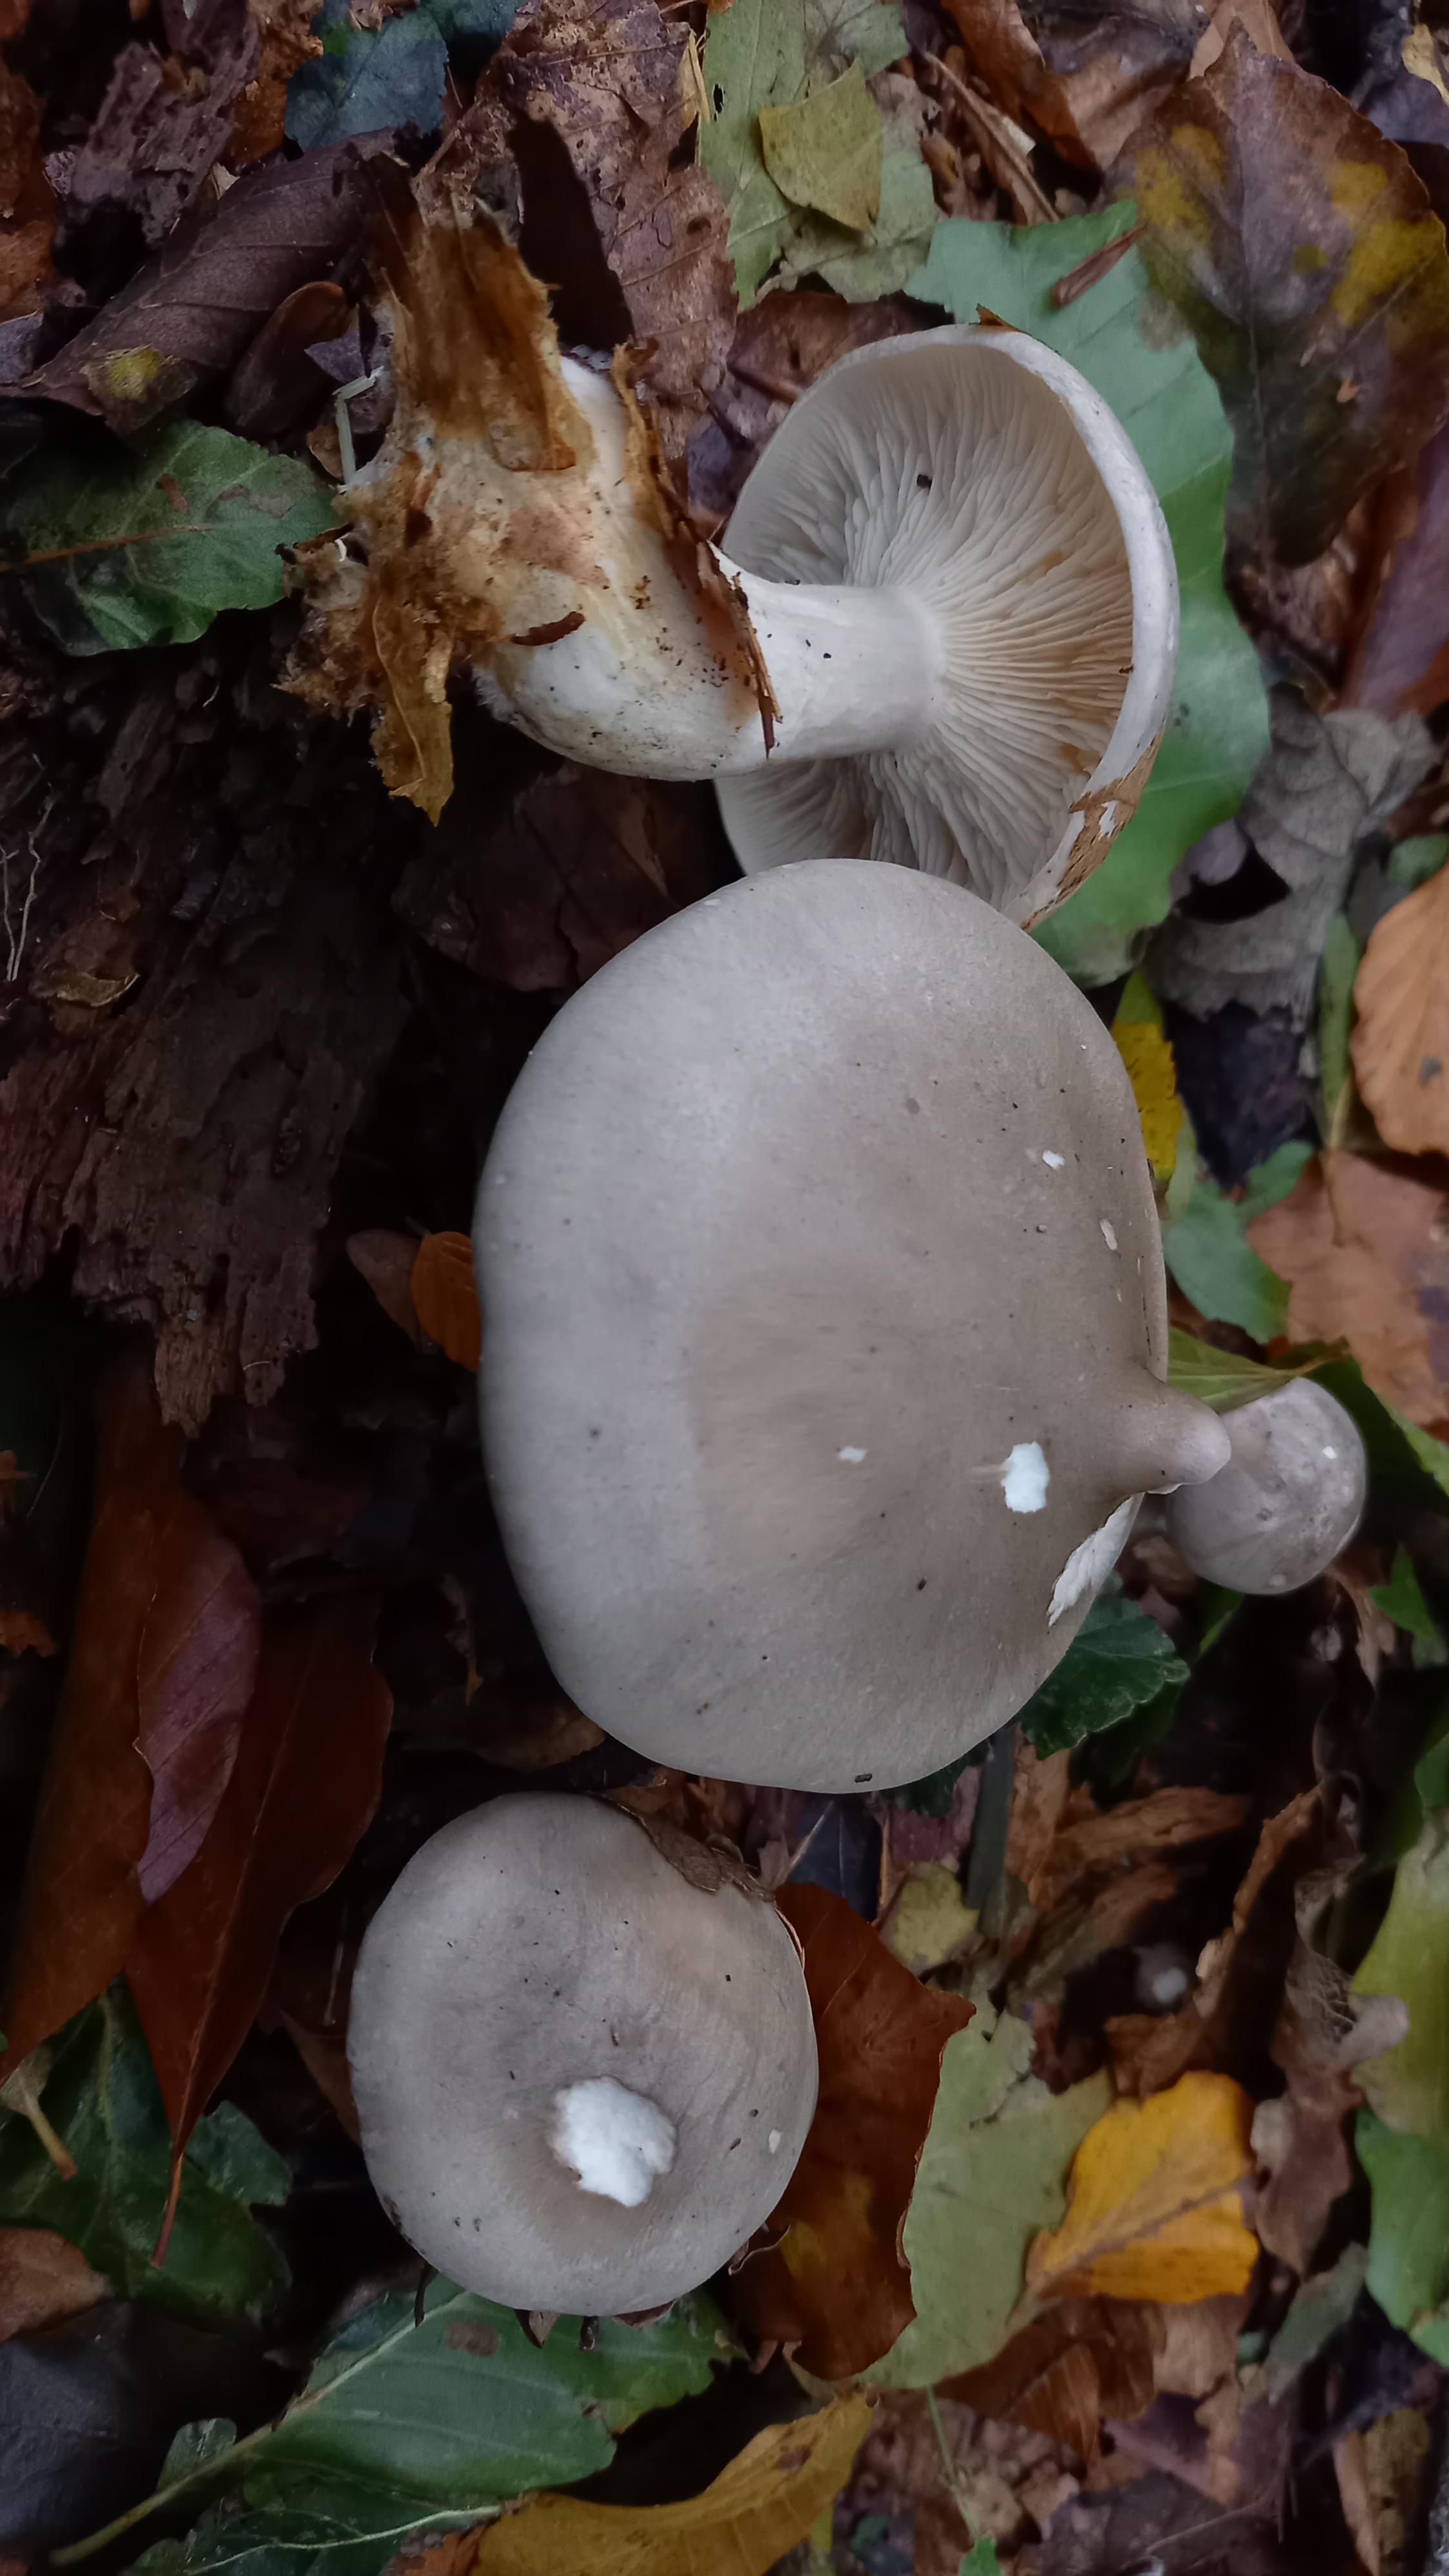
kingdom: Fungi
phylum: Basidiomycota
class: Agaricomycetes
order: Agaricales
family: Tricholomataceae
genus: Clitocybe
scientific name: Clitocybe nebularis
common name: tåge-tragthat
